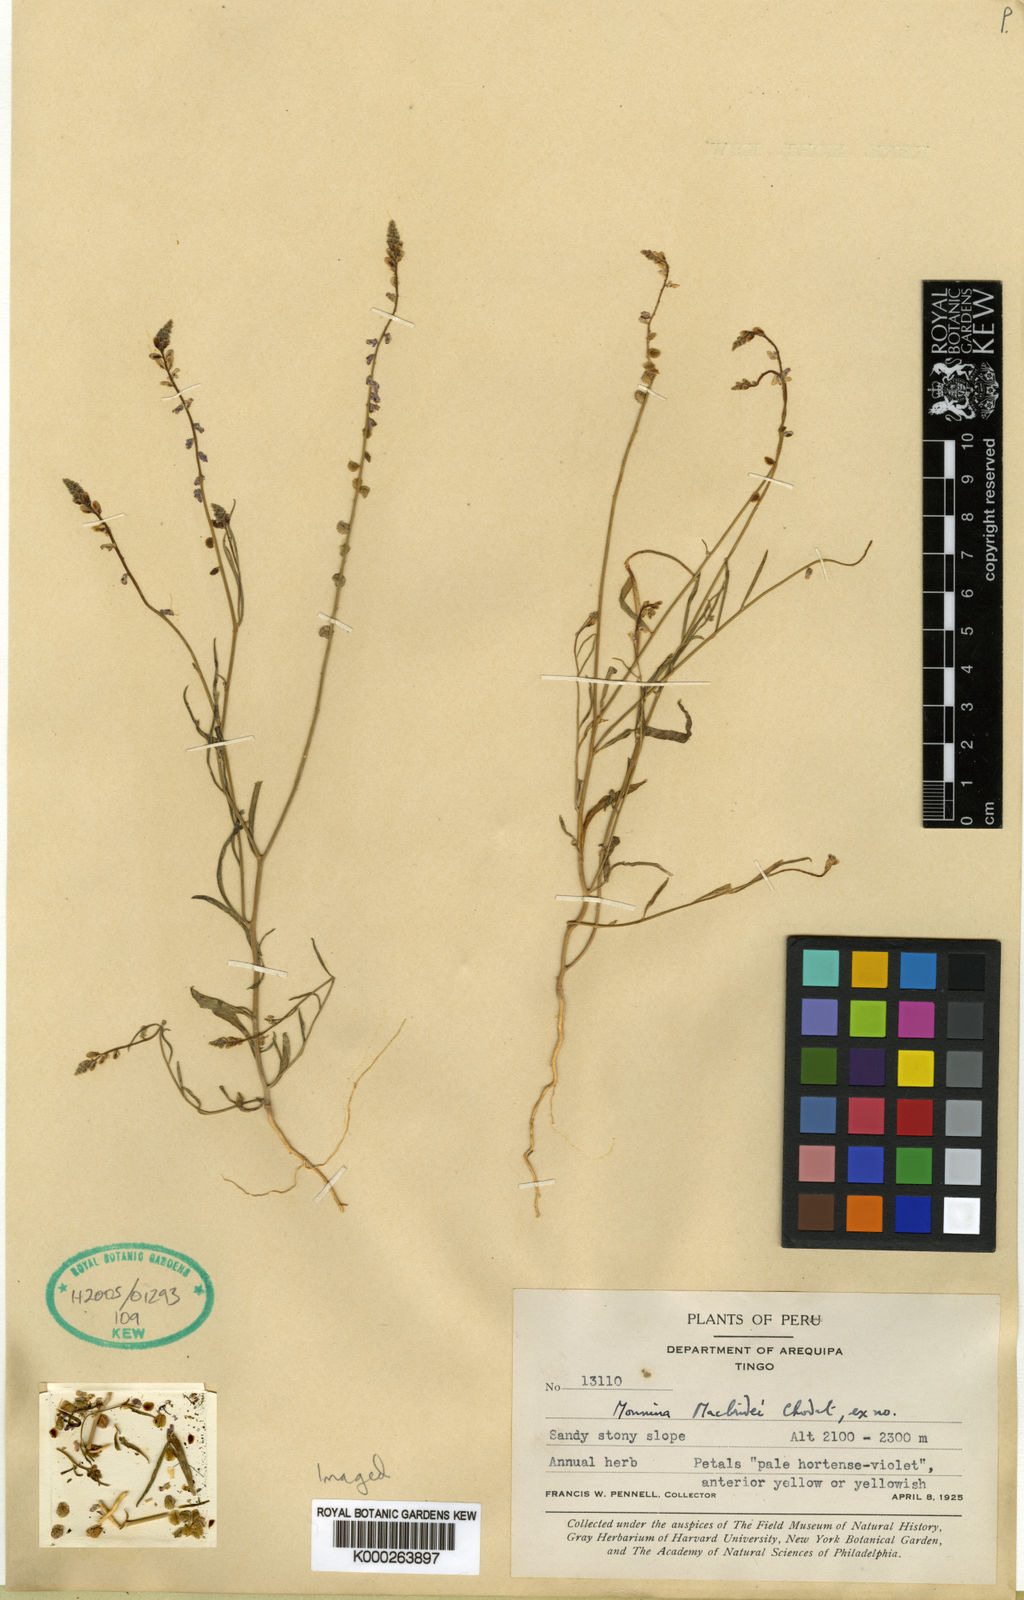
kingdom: Plantae
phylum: Tracheophyta
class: Magnoliopsida
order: Fabales
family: Polygalaceae
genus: Monnina
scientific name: Monnina
